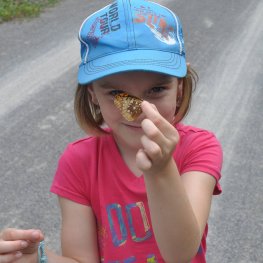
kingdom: Animalia
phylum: Arthropoda
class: Insecta
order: Lepidoptera
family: Nymphalidae
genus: Speyeria
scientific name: Speyeria cybele
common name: Great Spangled Fritillary
